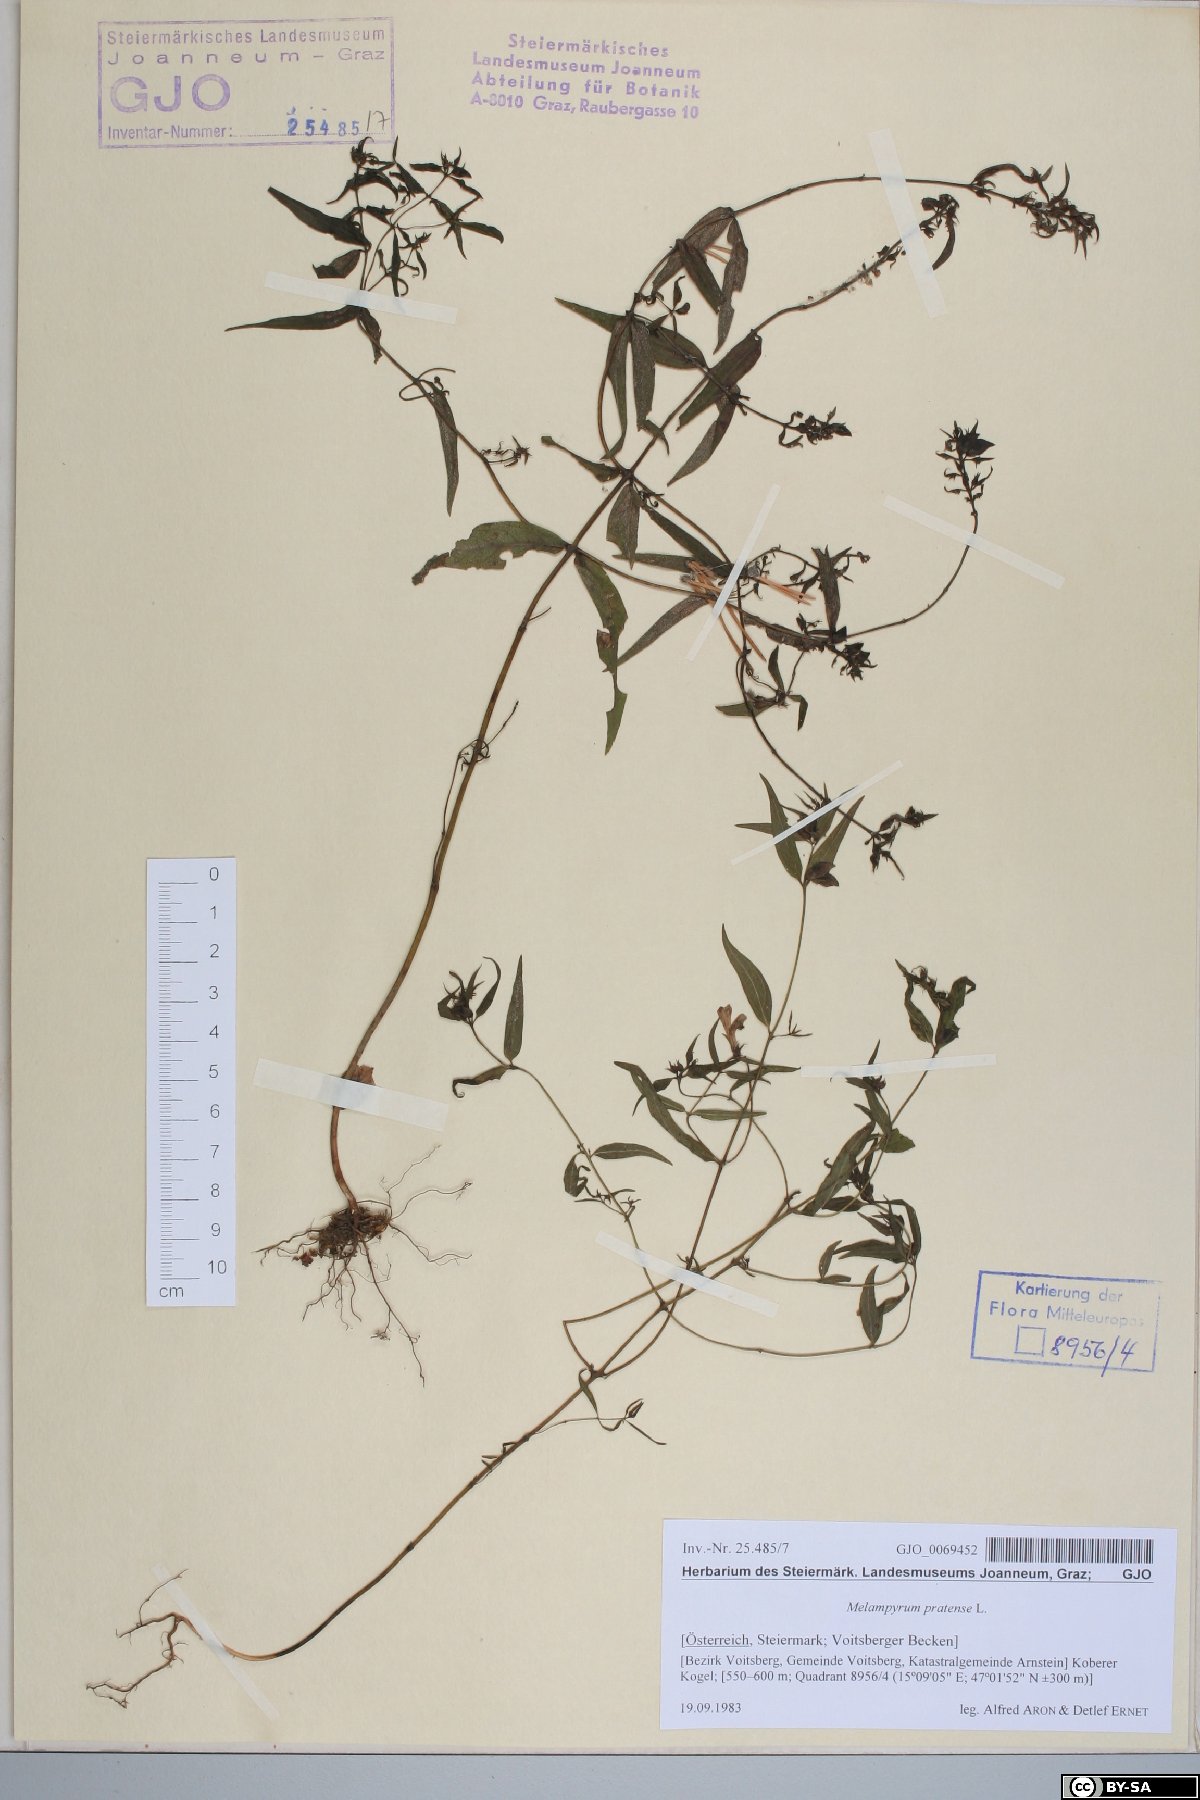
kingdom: Plantae
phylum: Tracheophyta
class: Magnoliopsida
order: Lamiales
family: Orobanchaceae
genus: Melampyrum
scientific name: Melampyrum pratense
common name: Common cow-wheat
